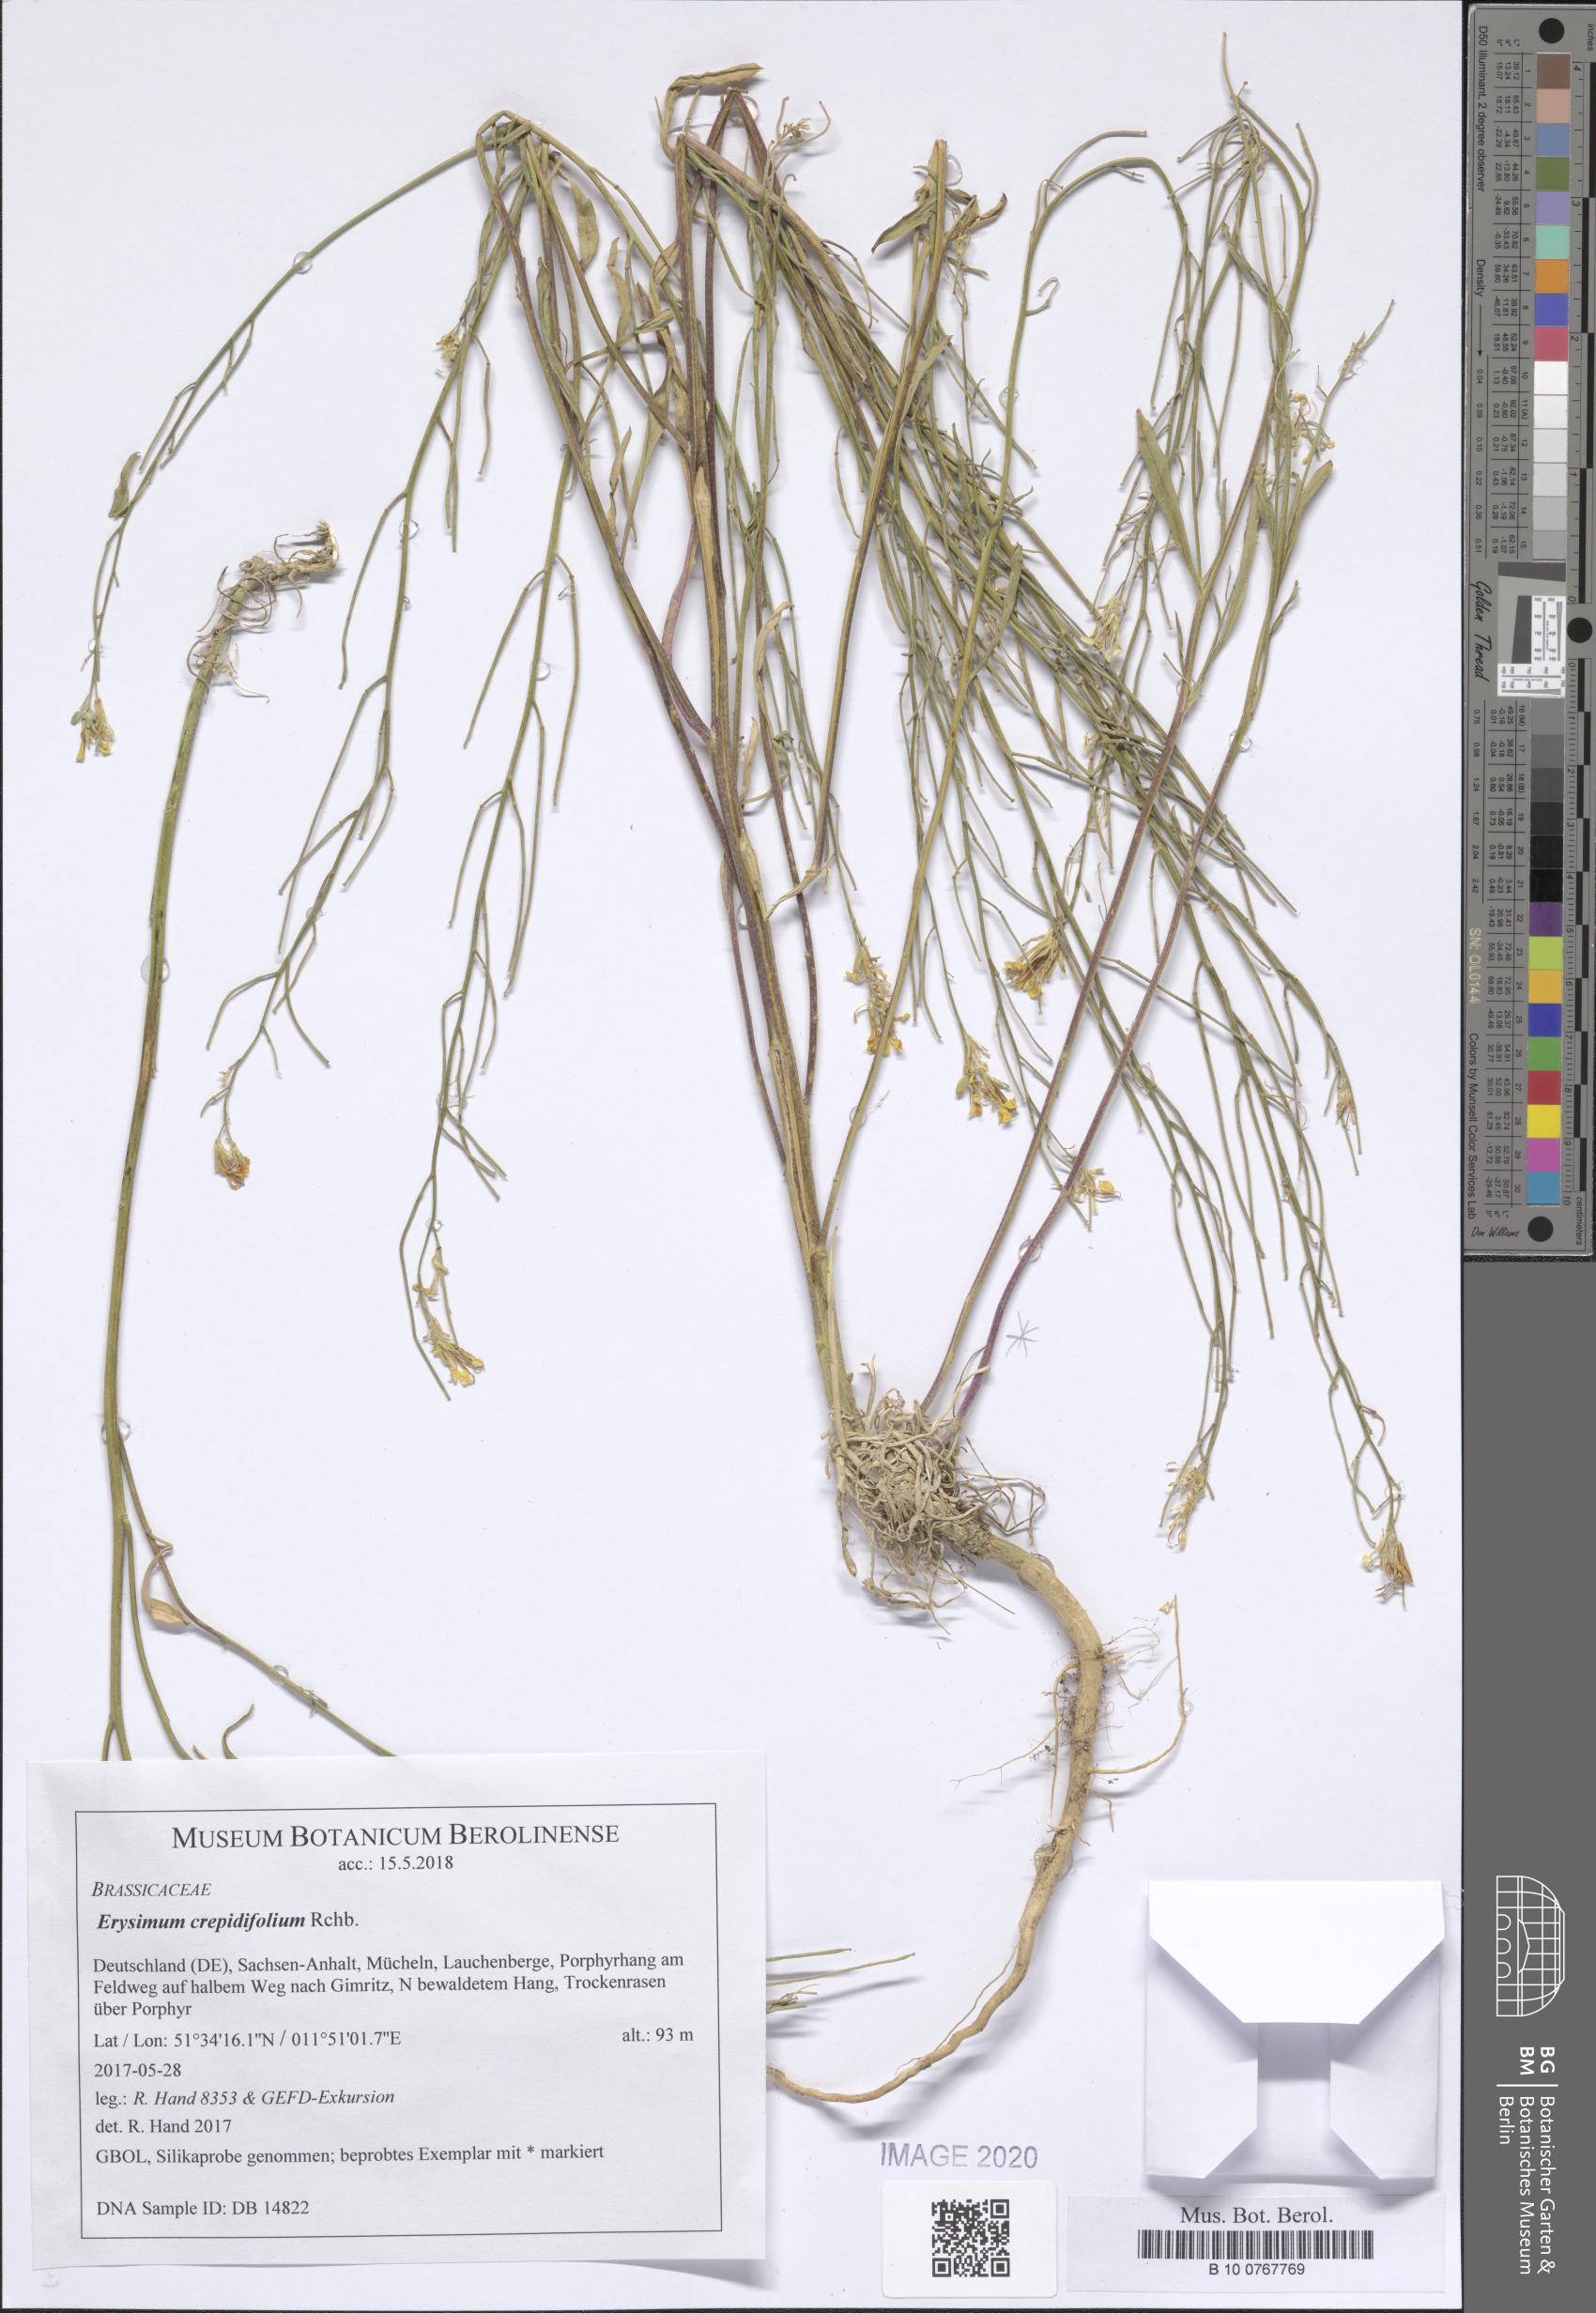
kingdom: Plantae
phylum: Tracheophyta
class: Magnoliopsida
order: Brassicales
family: Brassicaceae
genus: Erysimum
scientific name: Erysimum crepidifolium
